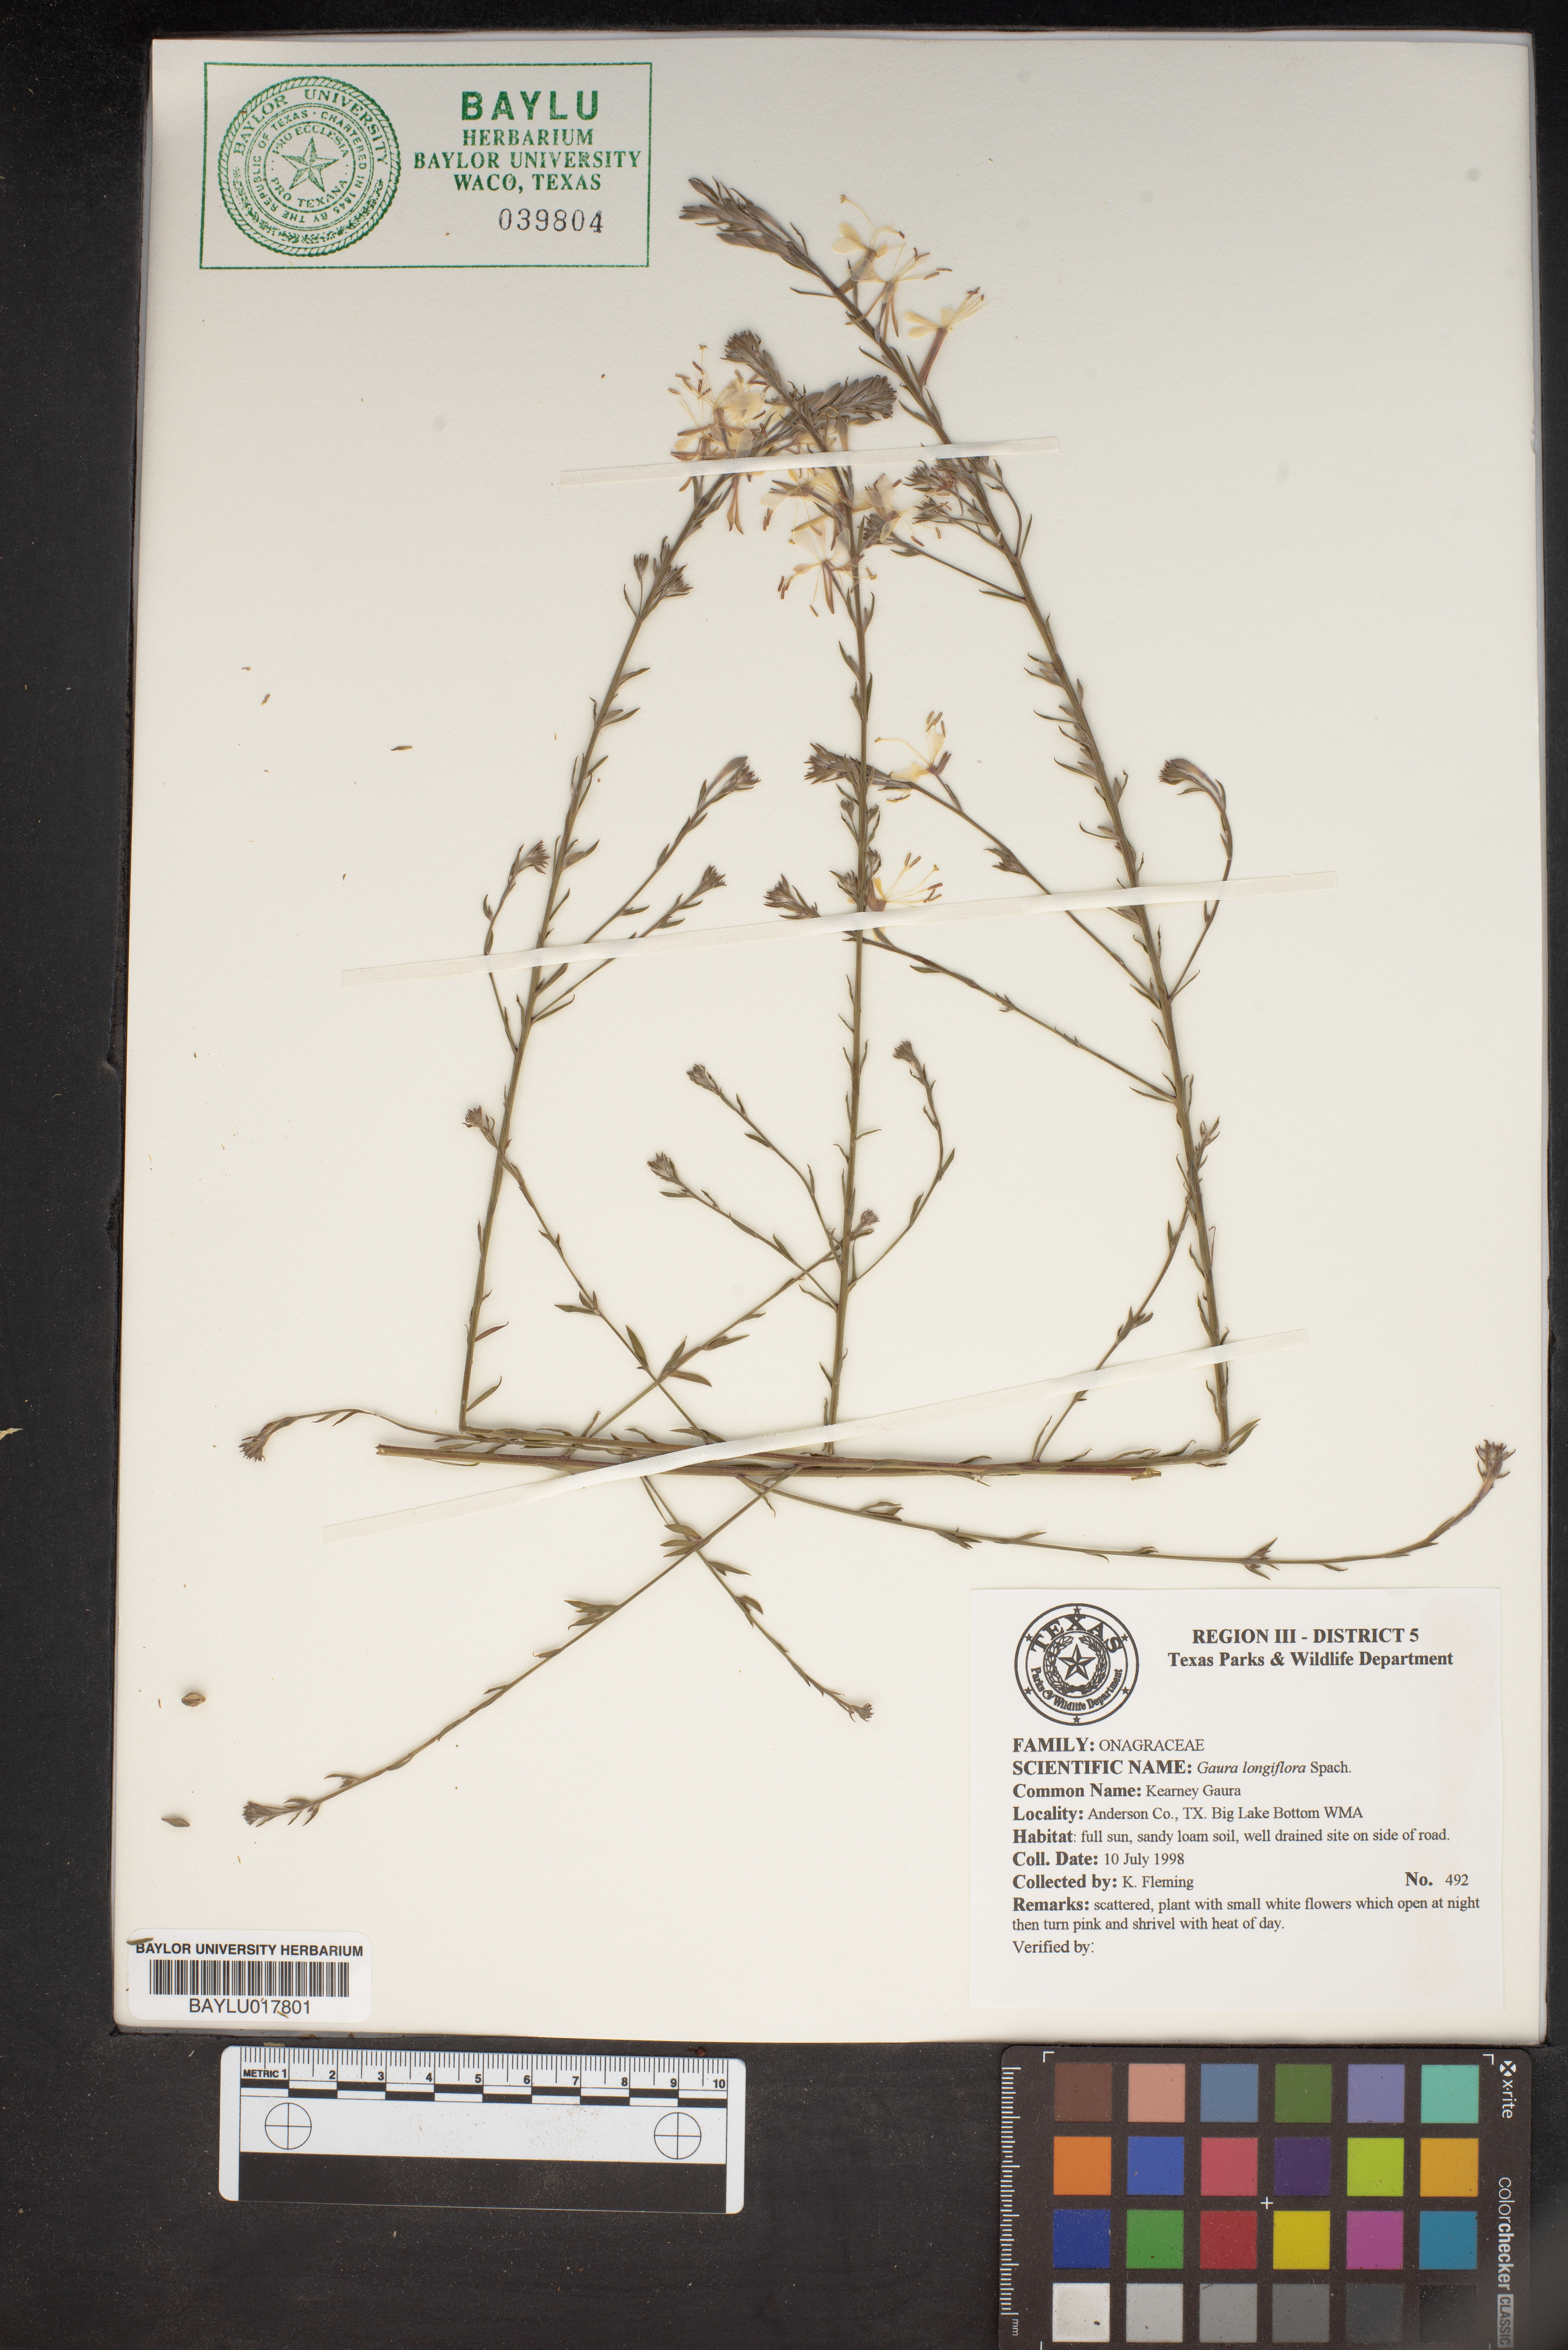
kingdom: Plantae
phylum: Tracheophyta
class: Magnoliopsida
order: Myrtales
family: Onagraceae
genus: Oenothera
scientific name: Oenothera filiformis
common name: Longflower beeblossom
